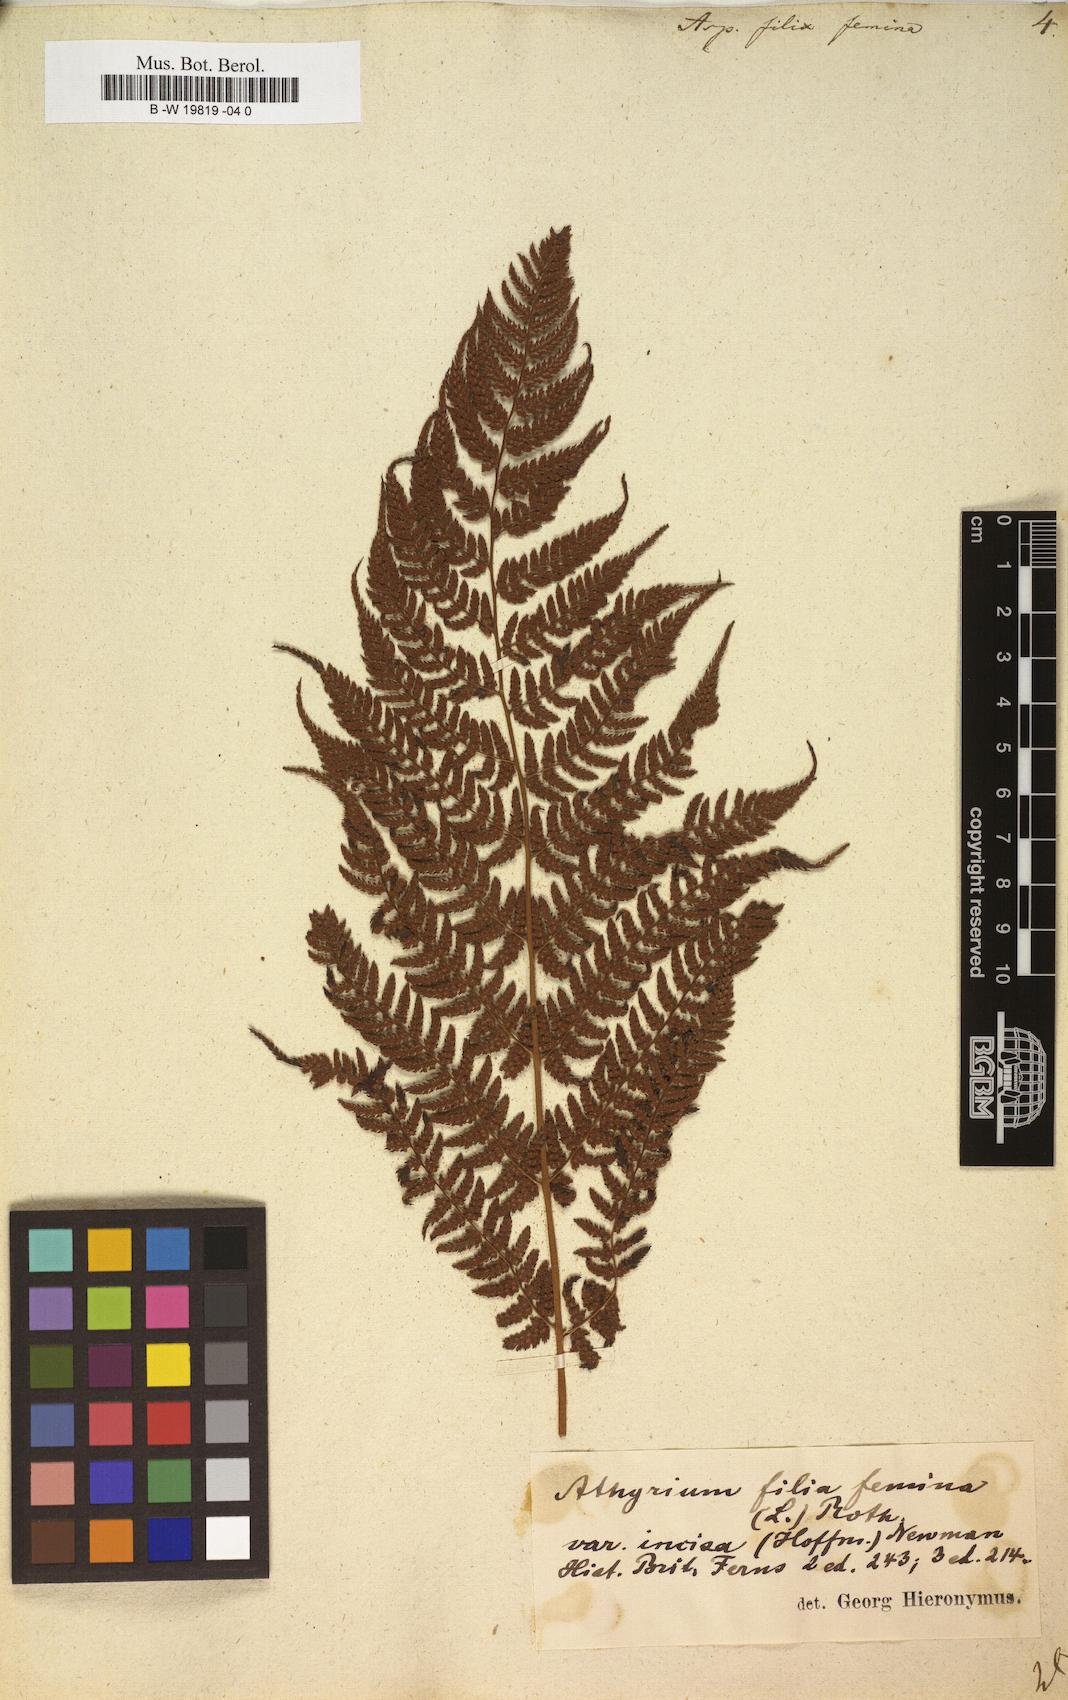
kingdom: Plantae
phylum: Tracheophyta
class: Polypodiopsida
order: Polypodiales
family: Athyriaceae
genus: Athyrium
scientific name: Athyrium filix-femina
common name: Lady fern
